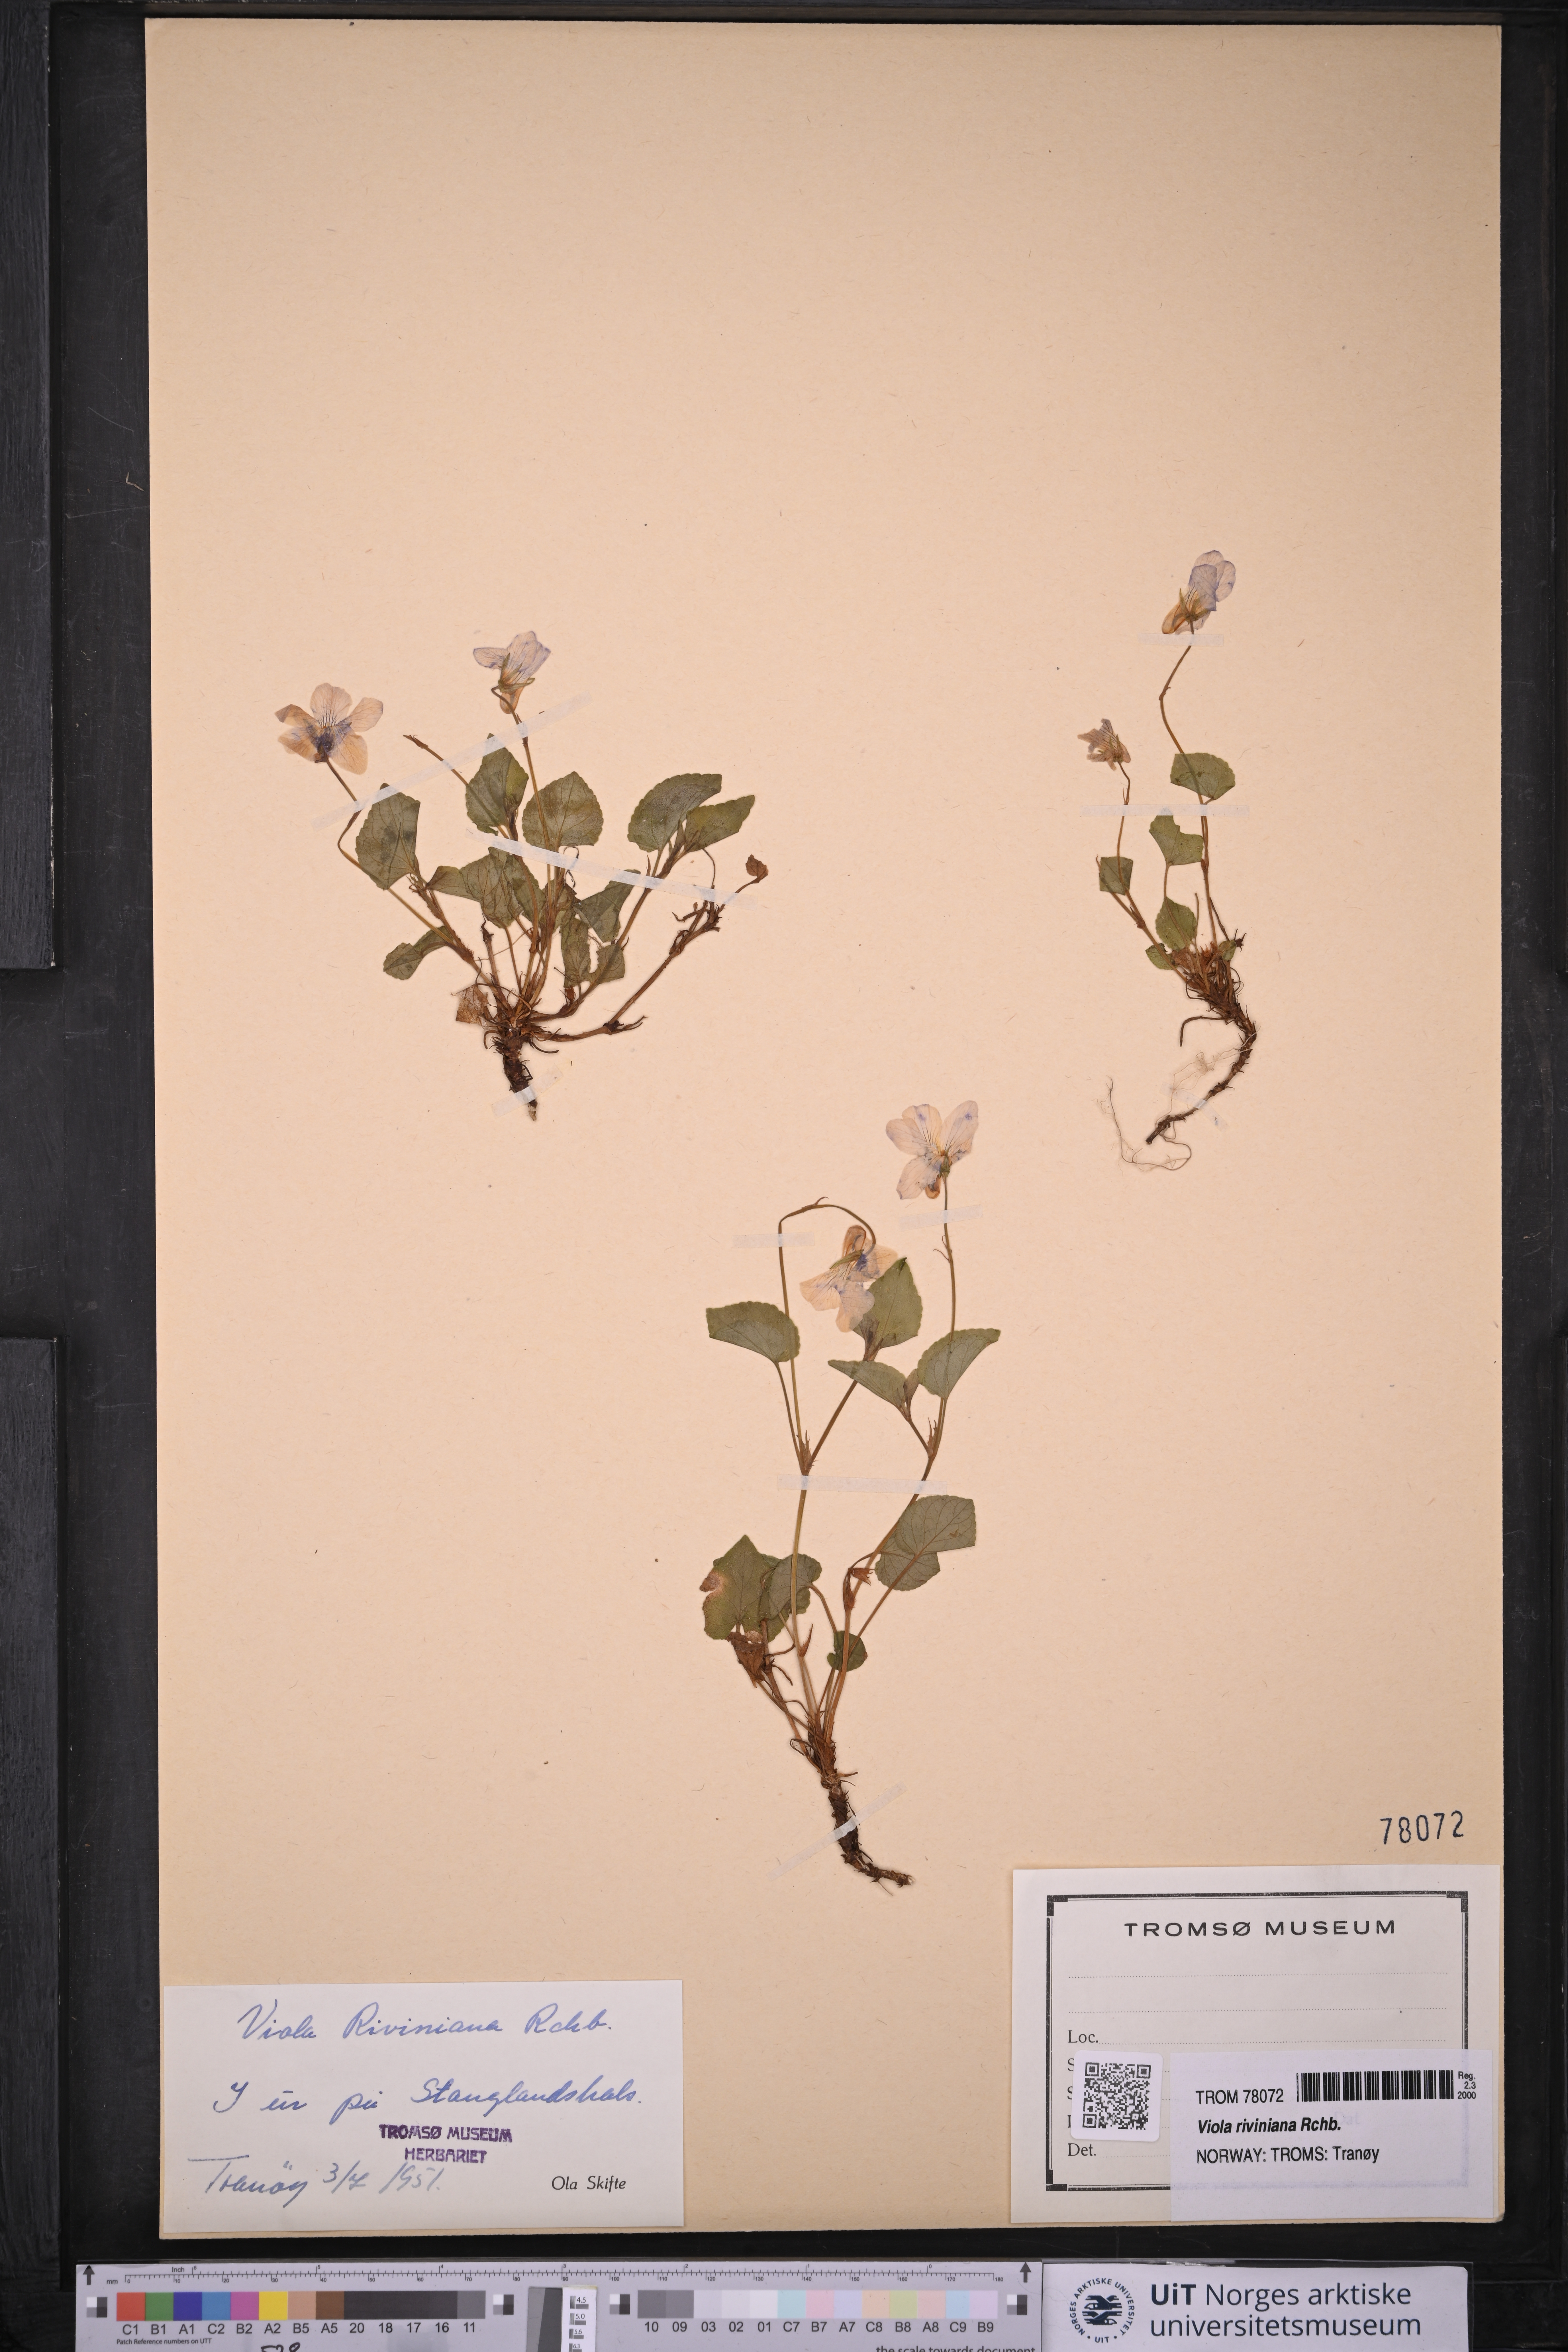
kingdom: Plantae
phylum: Tracheophyta
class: Magnoliopsida
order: Malpighiales
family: Violaceae
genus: Viola
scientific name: Viola riviniana
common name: Common dog-violet
